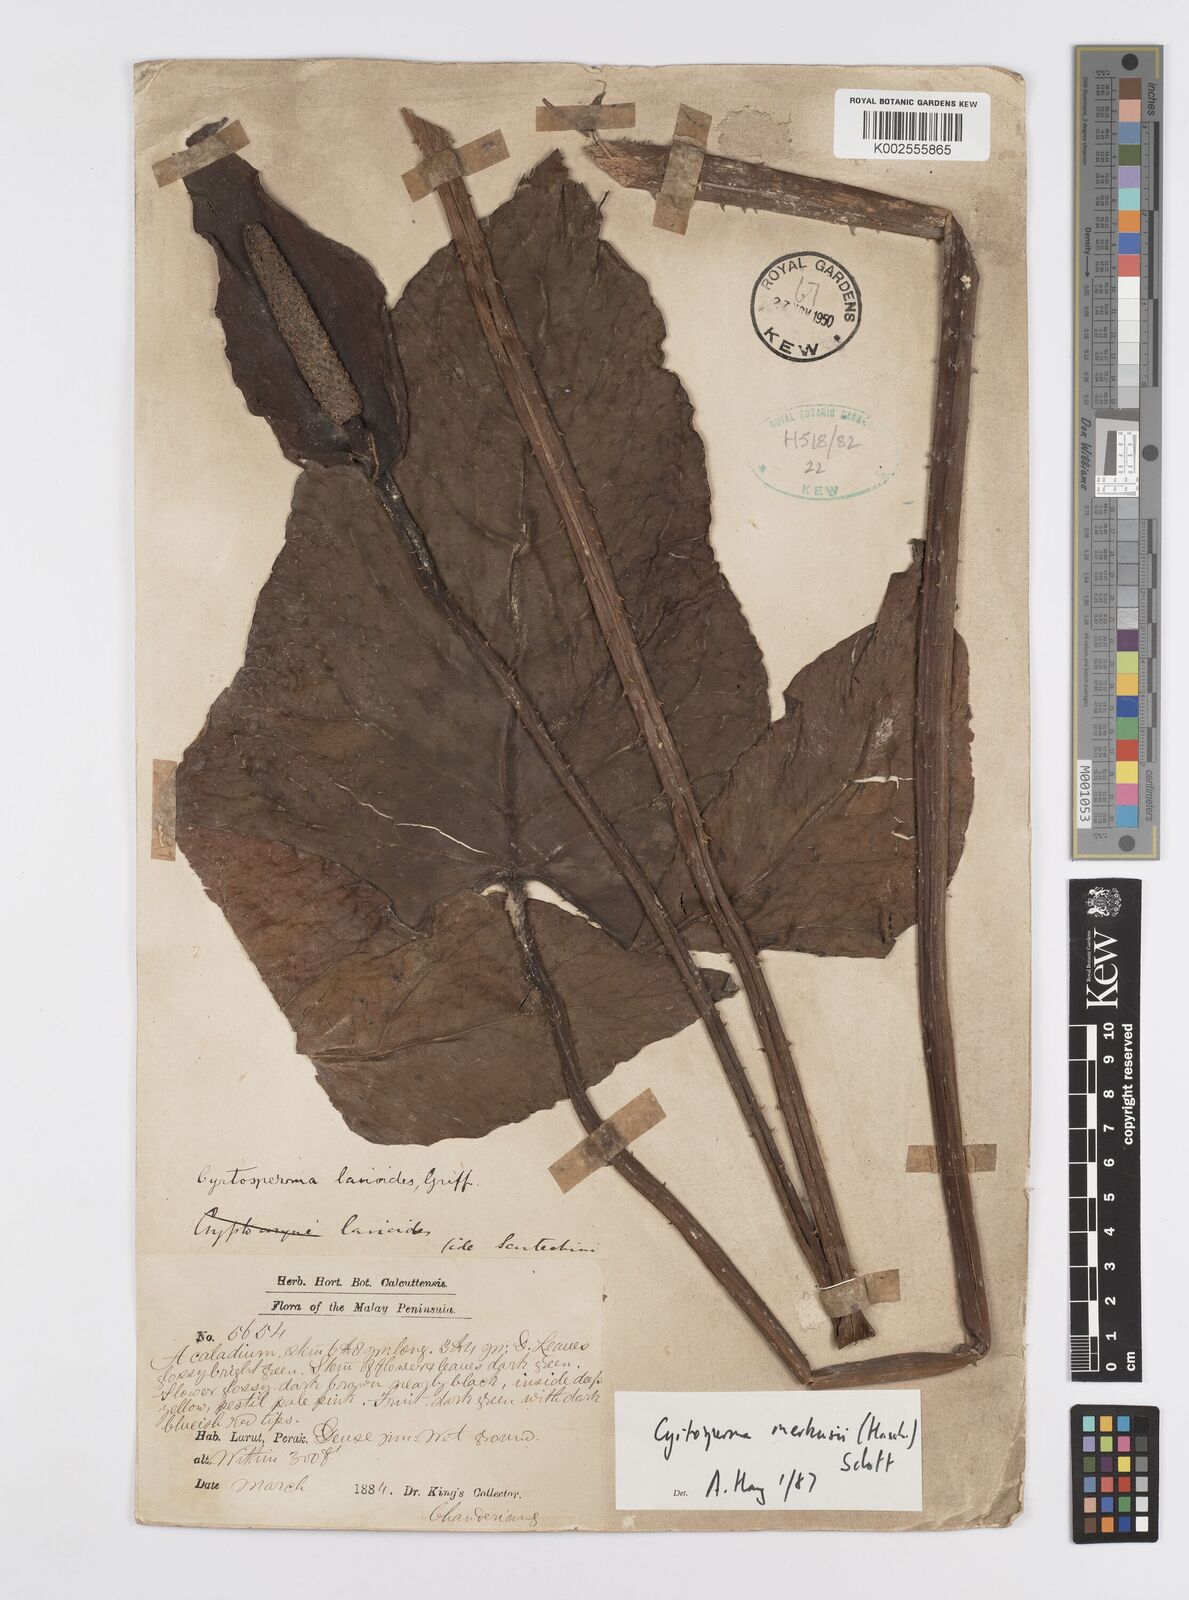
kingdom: Plantae
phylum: Tracheophyta
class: Liliopsida
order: Alismatales
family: Araceae
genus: Cyrtosperma
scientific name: Cyrtosperma merkusii
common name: Giant swamp-taro
